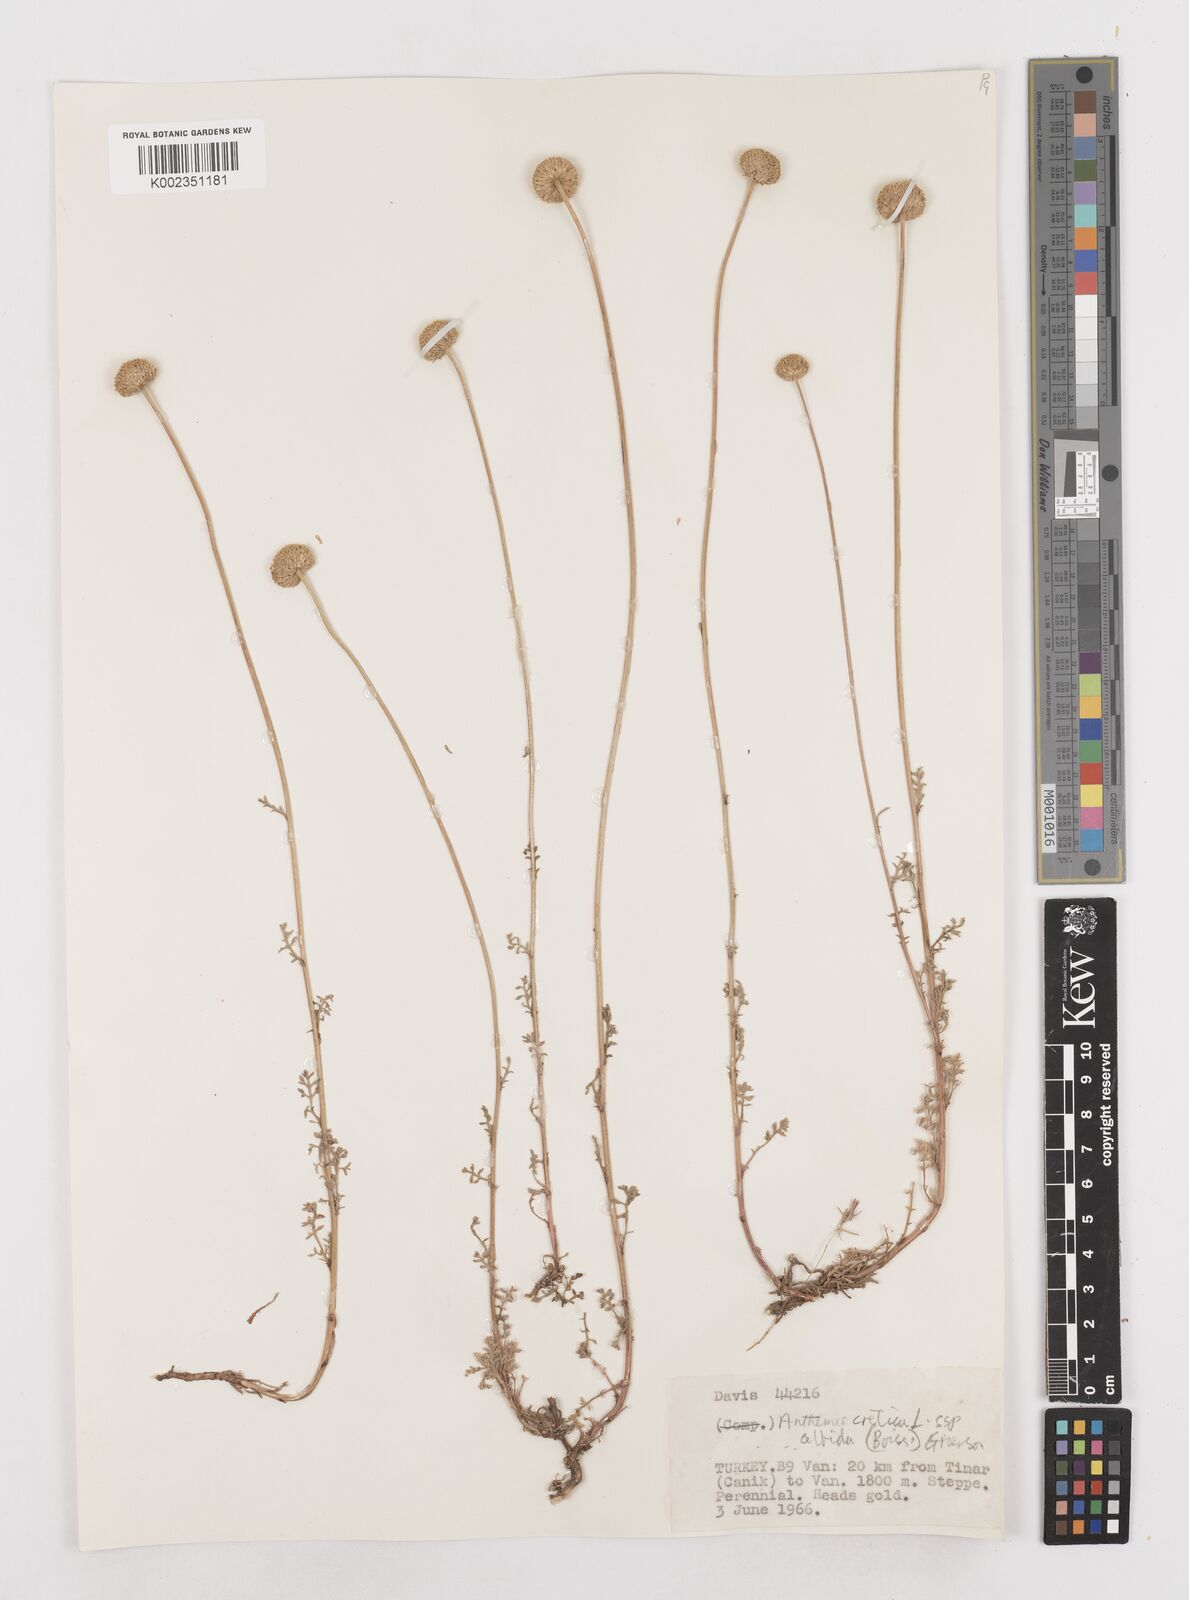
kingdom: Plantae
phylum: Tracheophyta
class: Magnoliopsida
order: Asterales
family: Asteraceae
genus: Anthemis
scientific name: Anthemis cretica
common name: Mountain dog-daisy
